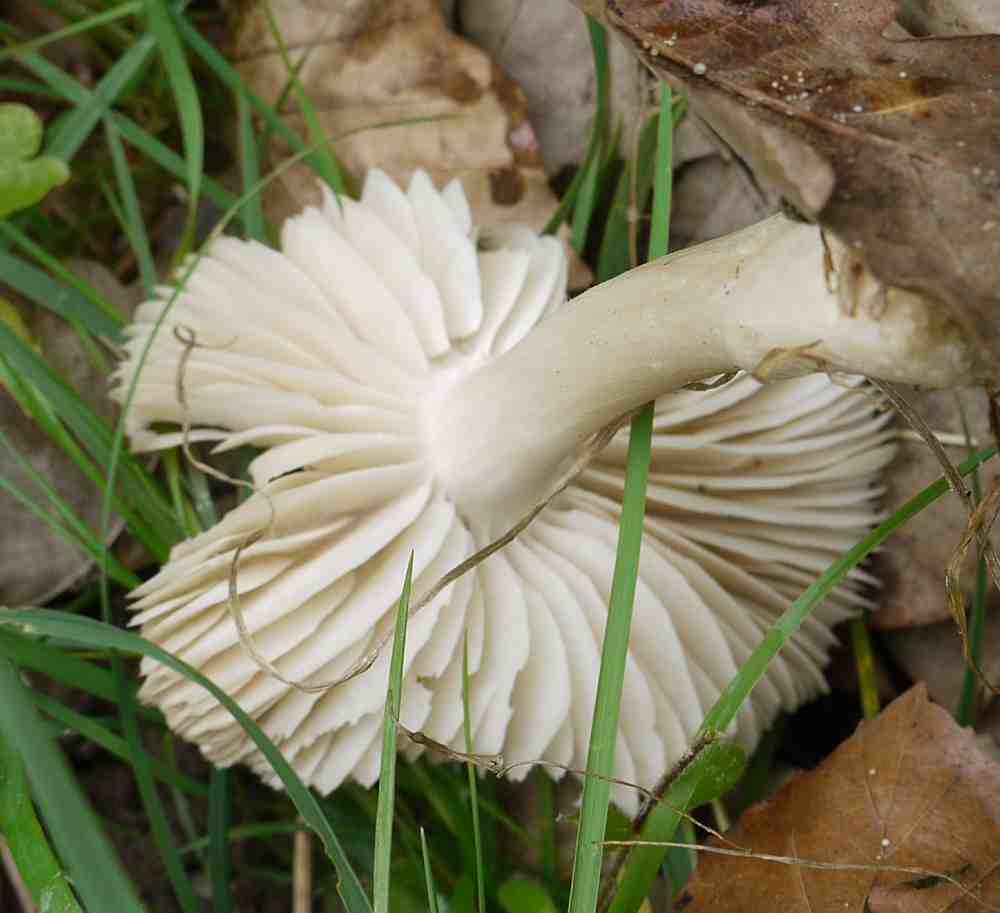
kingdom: Fungi
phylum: Basidiomycota
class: Agaricomycetes
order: Agaricales
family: Tricholomataceae
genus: Megacollybia
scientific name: Megacollybia platyphylla
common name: bredbladet væbnerhat
